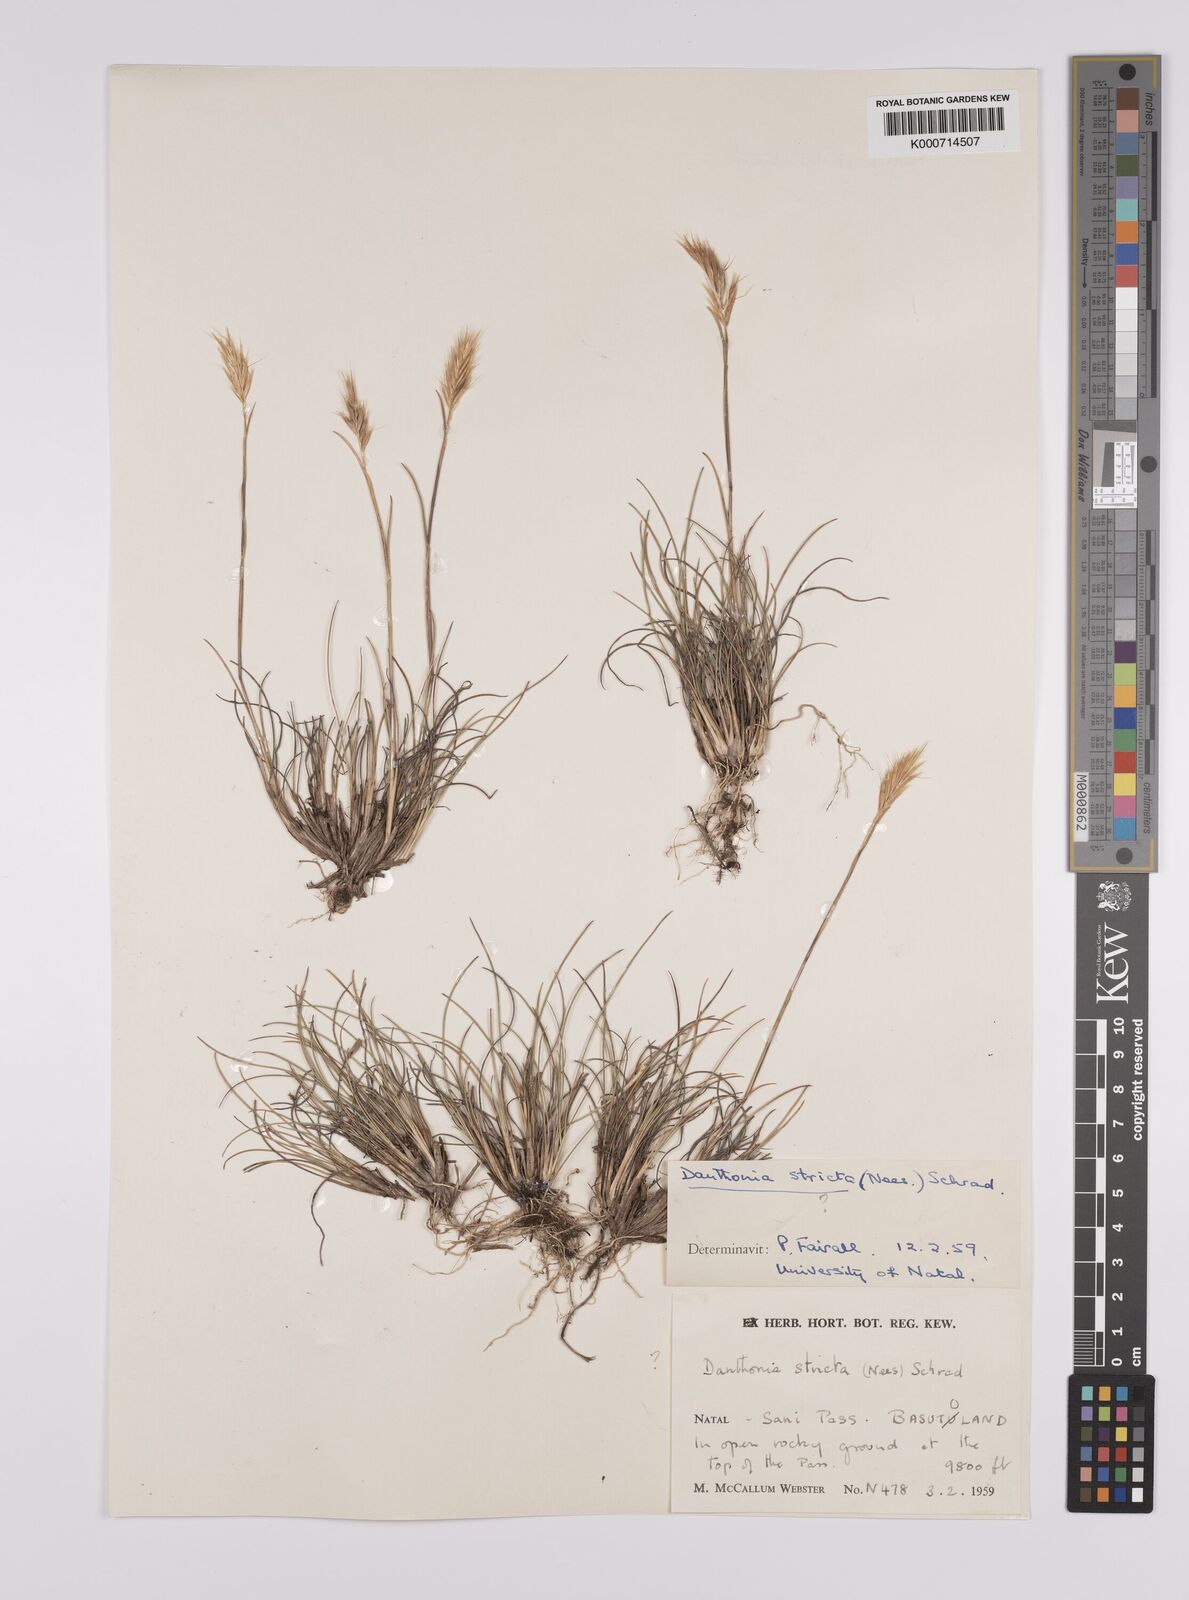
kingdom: Plantae
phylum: Tracheophyta
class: Liliopsida
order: Poales
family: Poaceae
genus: Tenaxia
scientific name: Tenaxia disticha
